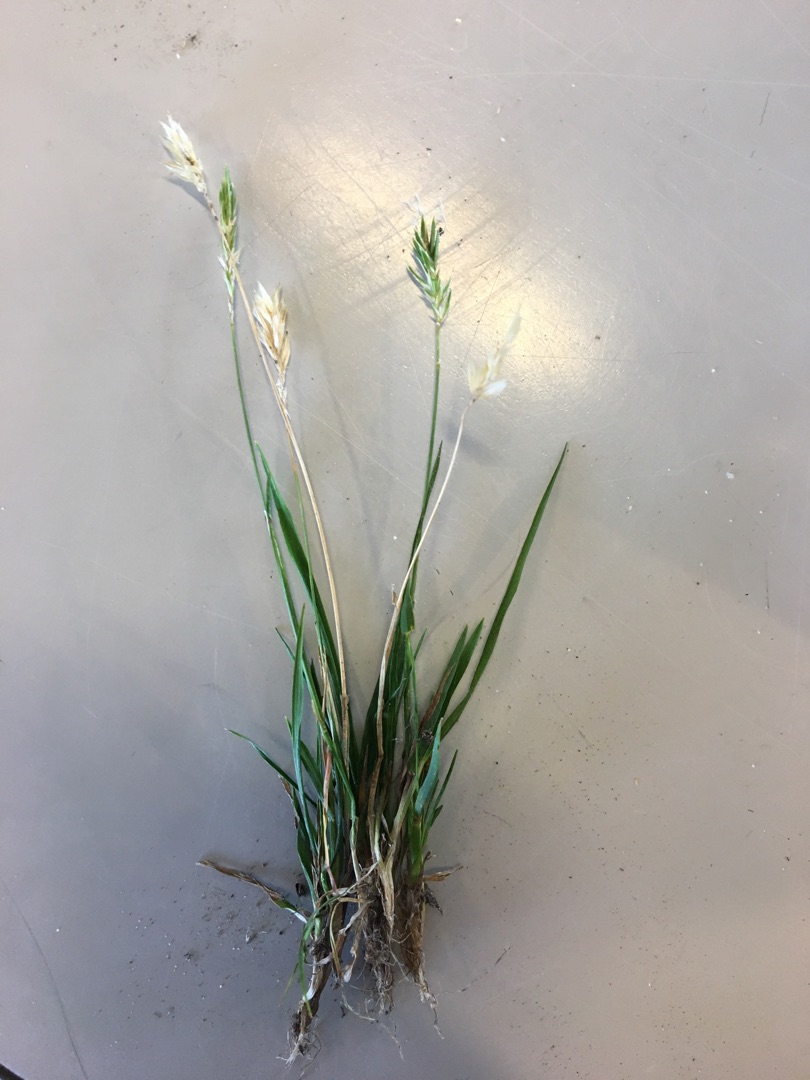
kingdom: Plantae
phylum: Tracheophyta
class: Liliopsida
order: Poales
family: Poaceae
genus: Anthoxanthum
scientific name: Anthoxanthum odoratum
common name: Vellugtende gulaks
